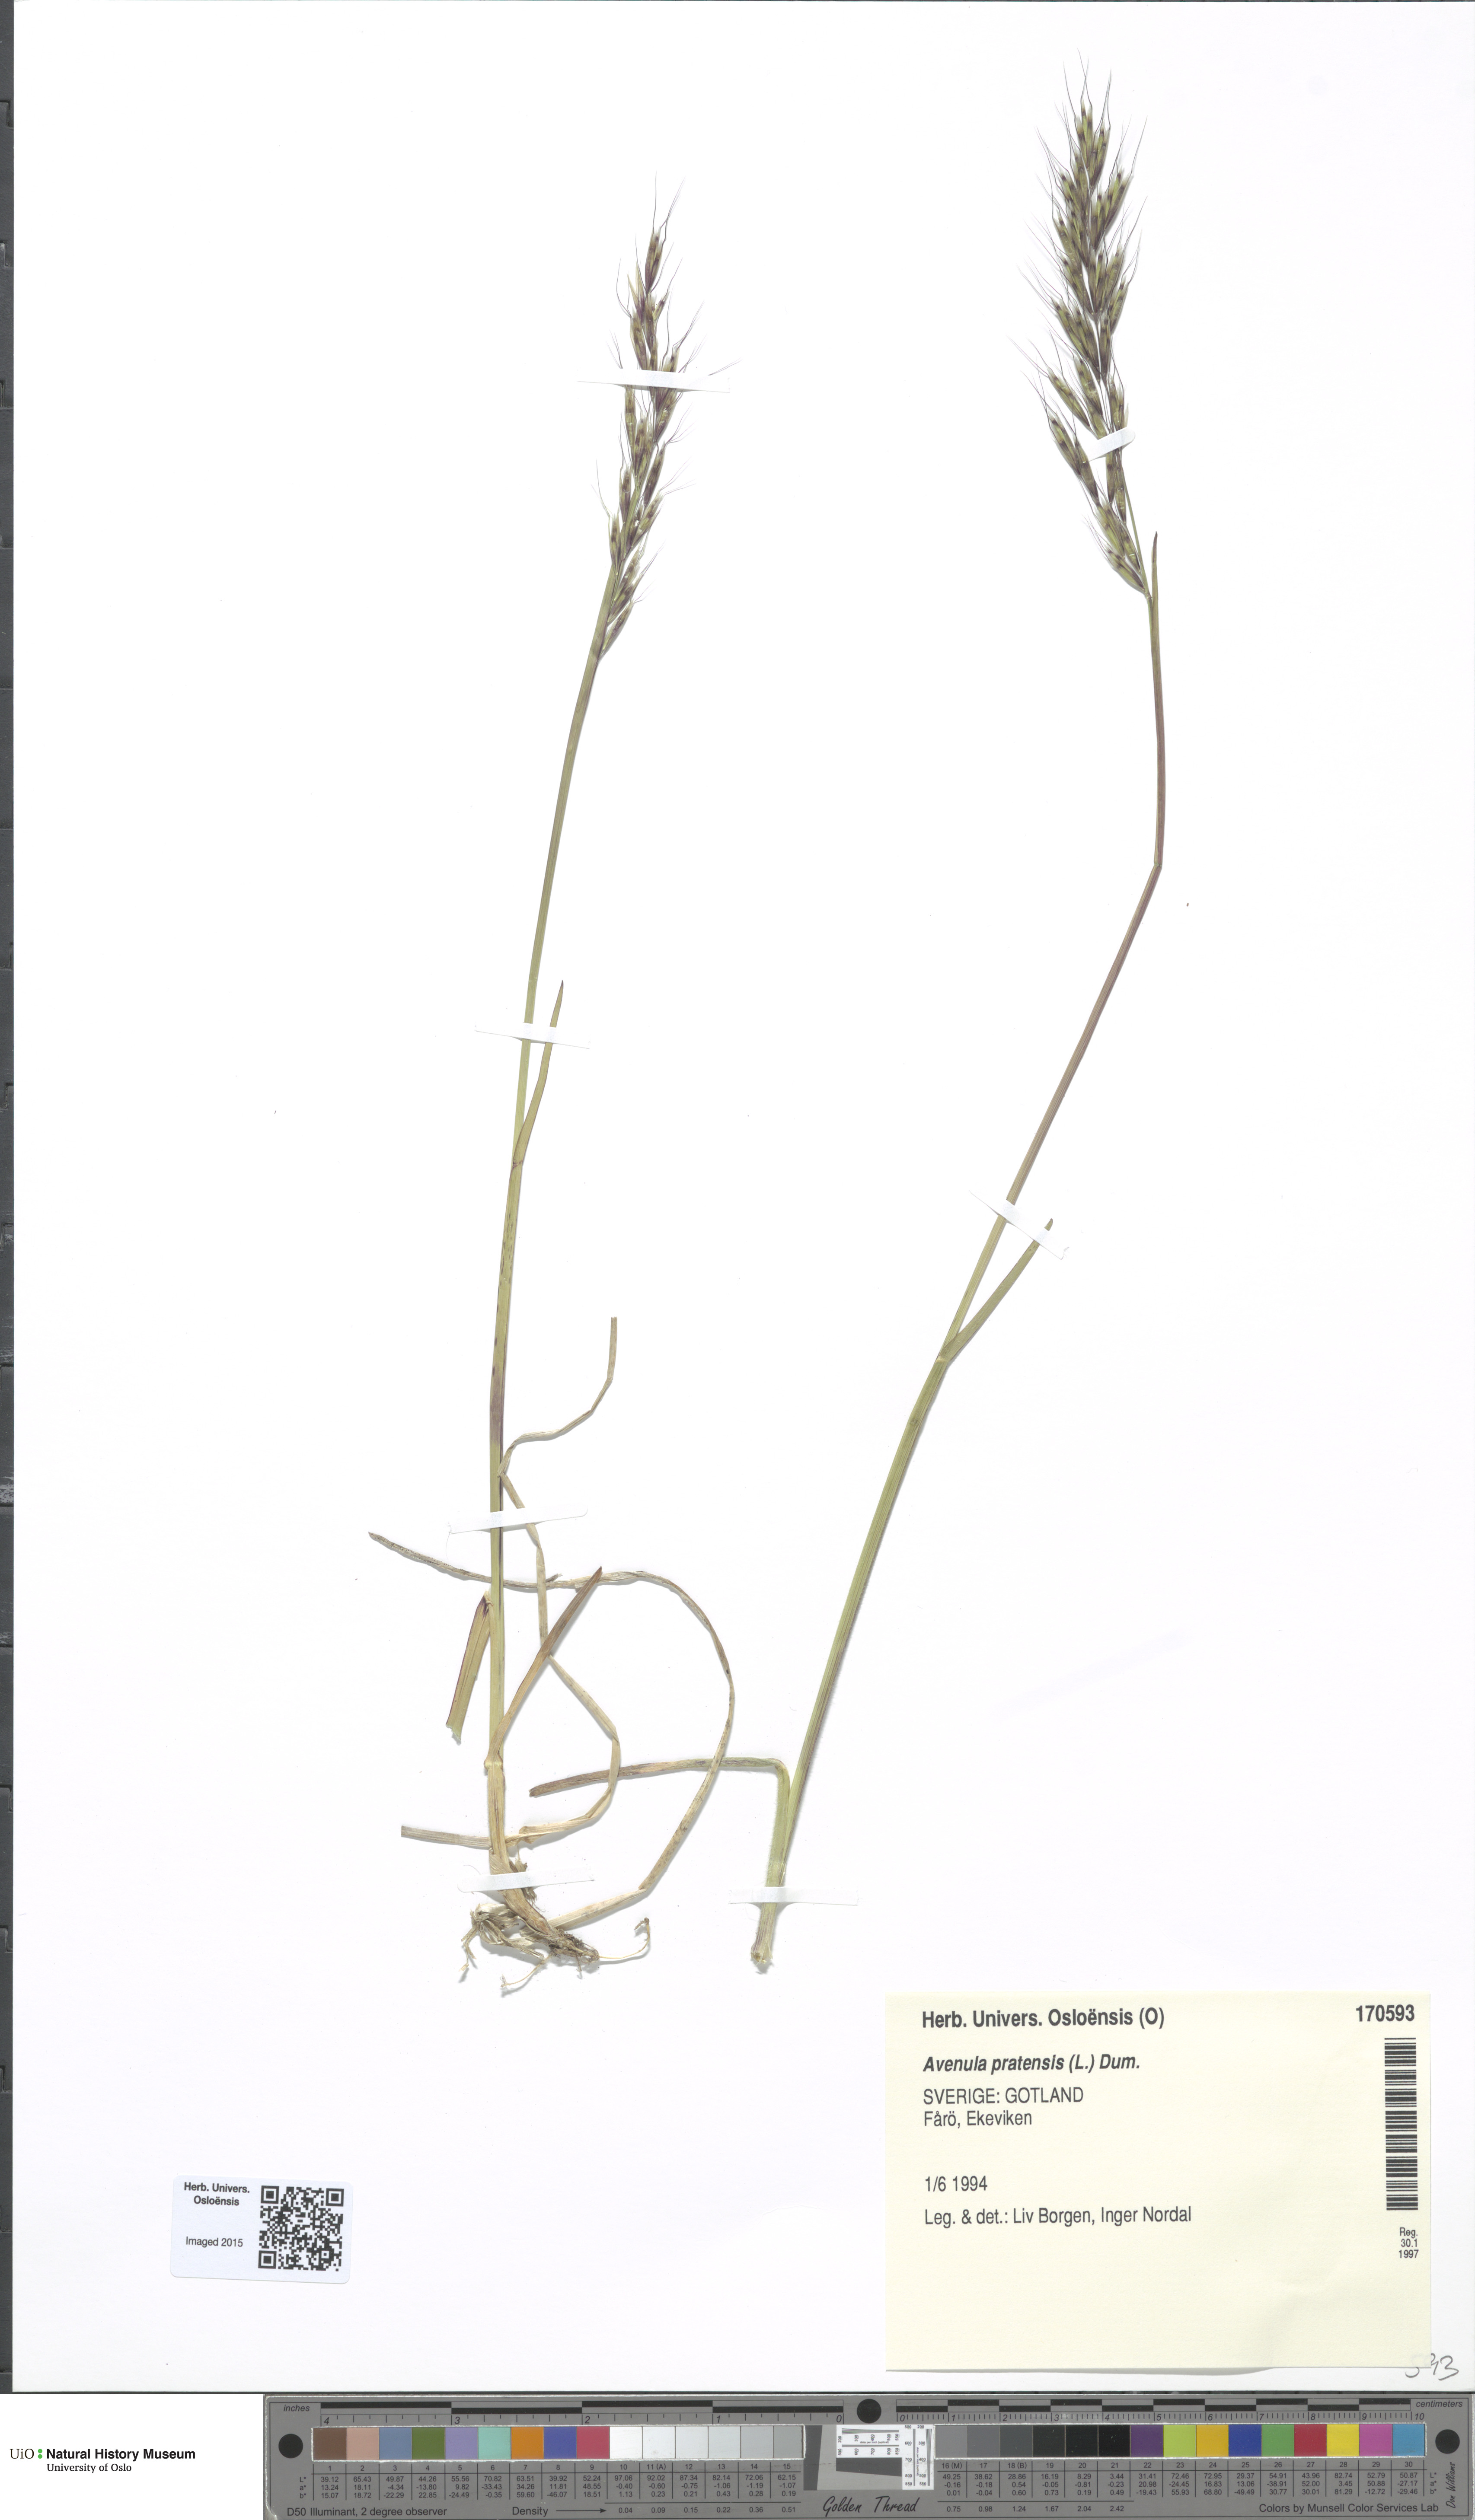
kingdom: Plantae
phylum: Tracheophyta
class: Liliopsida
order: Poales
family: Poaceae
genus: Helictochloa
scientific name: Helictochloa pratensis
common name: Meadow oat grass
